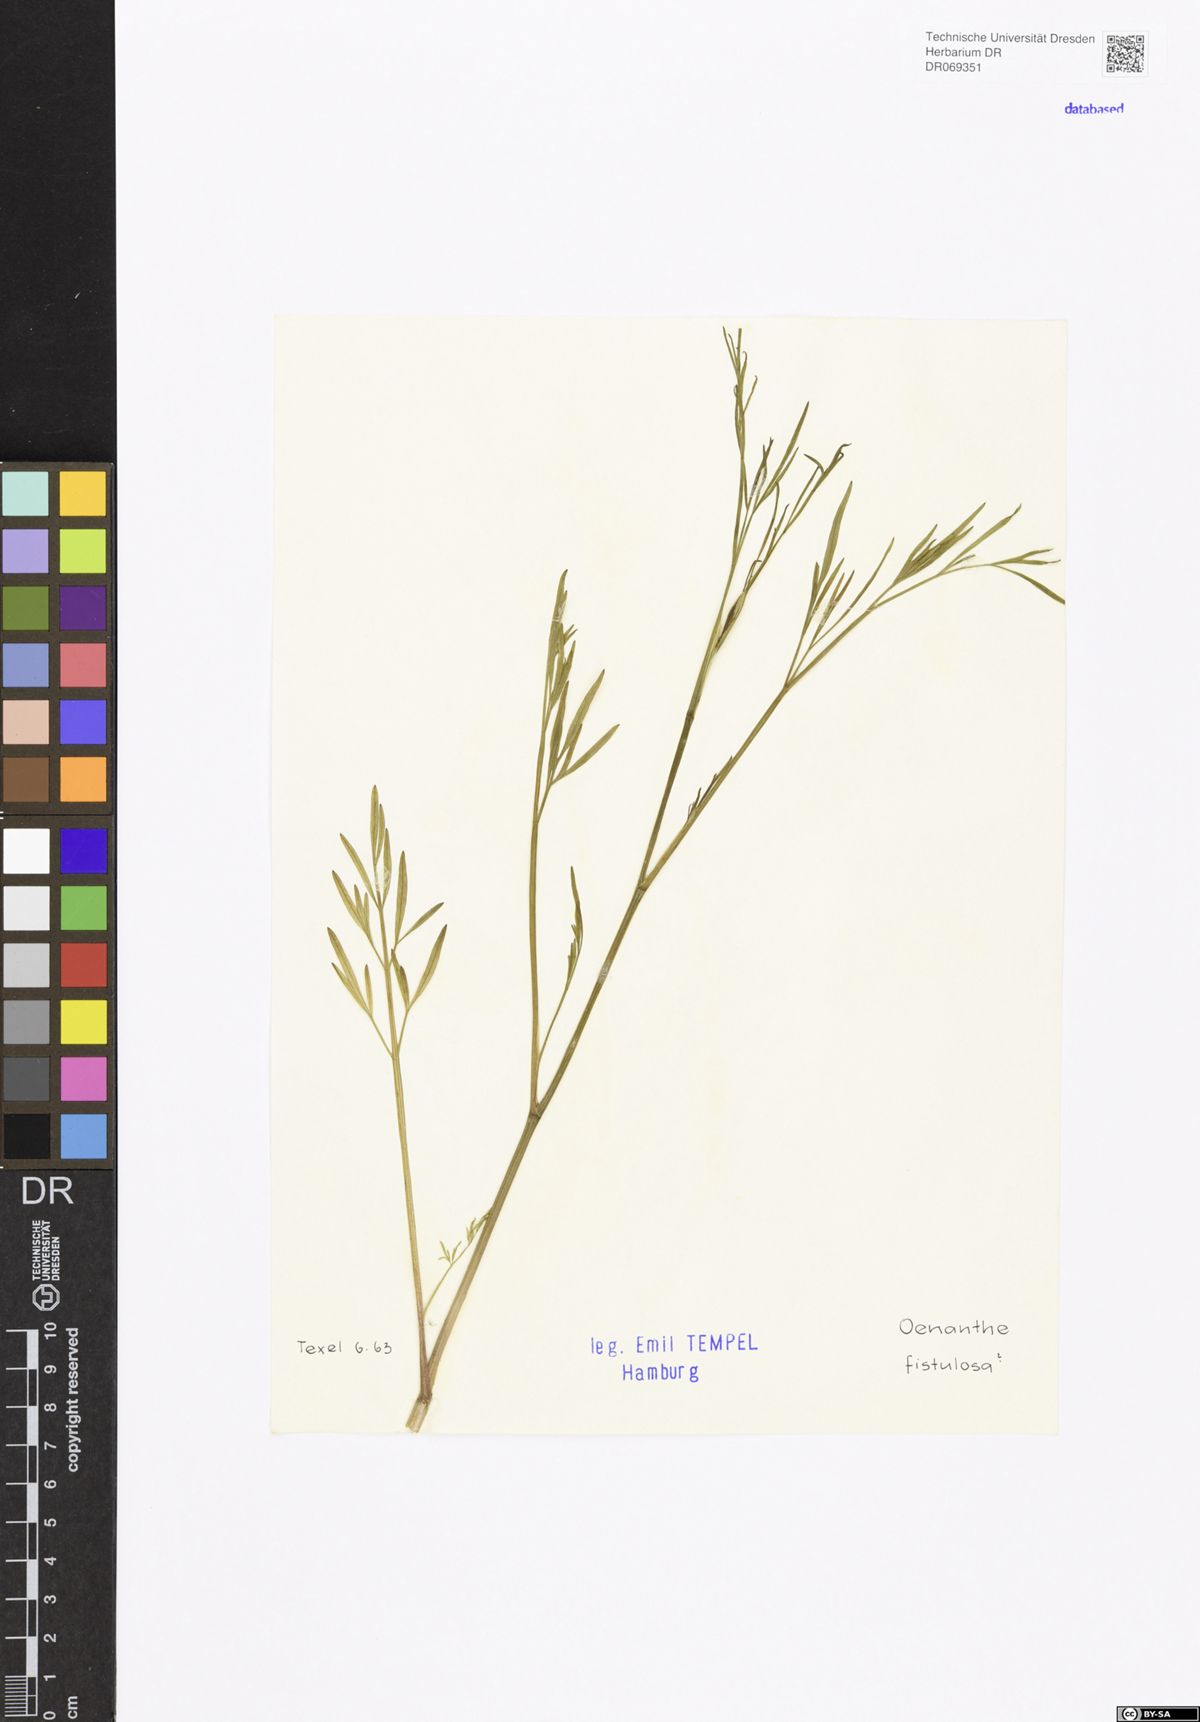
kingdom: Plantae
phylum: Tracheophyta
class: Magnoliopsida
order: Apiales
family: Apiaceae
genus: Oenanthe
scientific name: Oenanthe fistulosa
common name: Tubular water-dropwort
